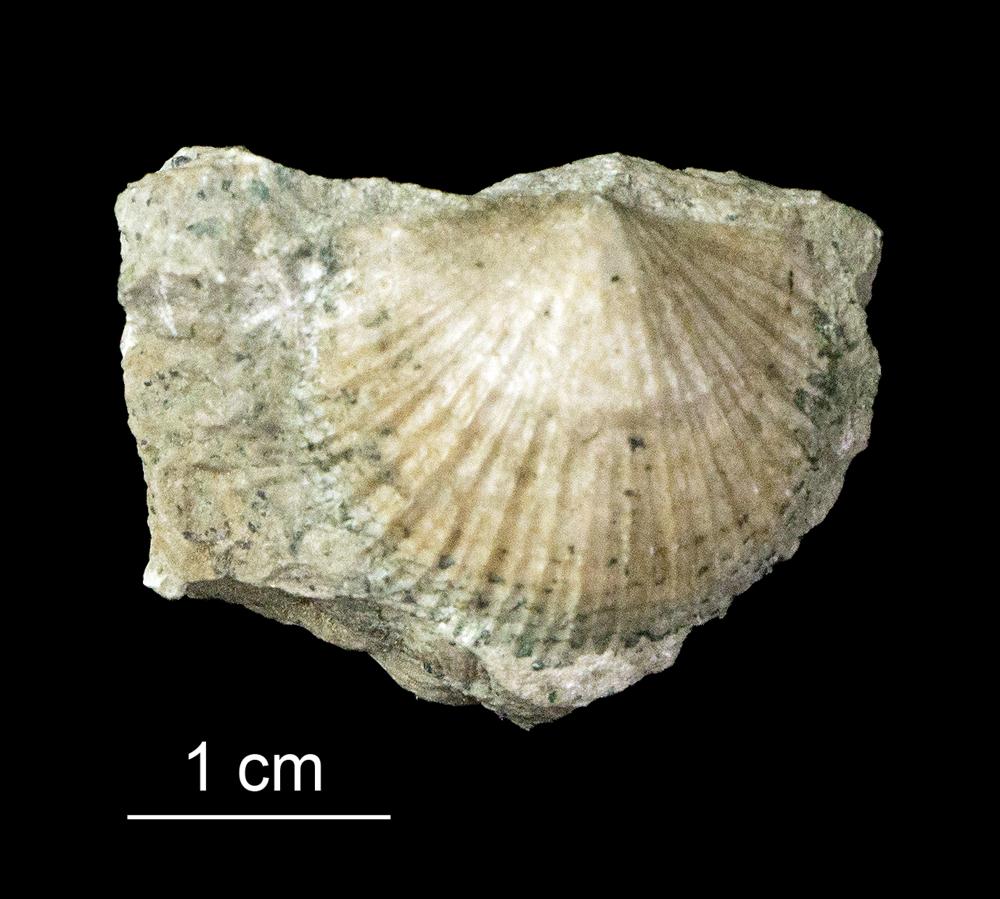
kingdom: Animalia
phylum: Brachiopoda
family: Gonambonitidae
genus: Gonambonites
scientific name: Gonambonites plana
